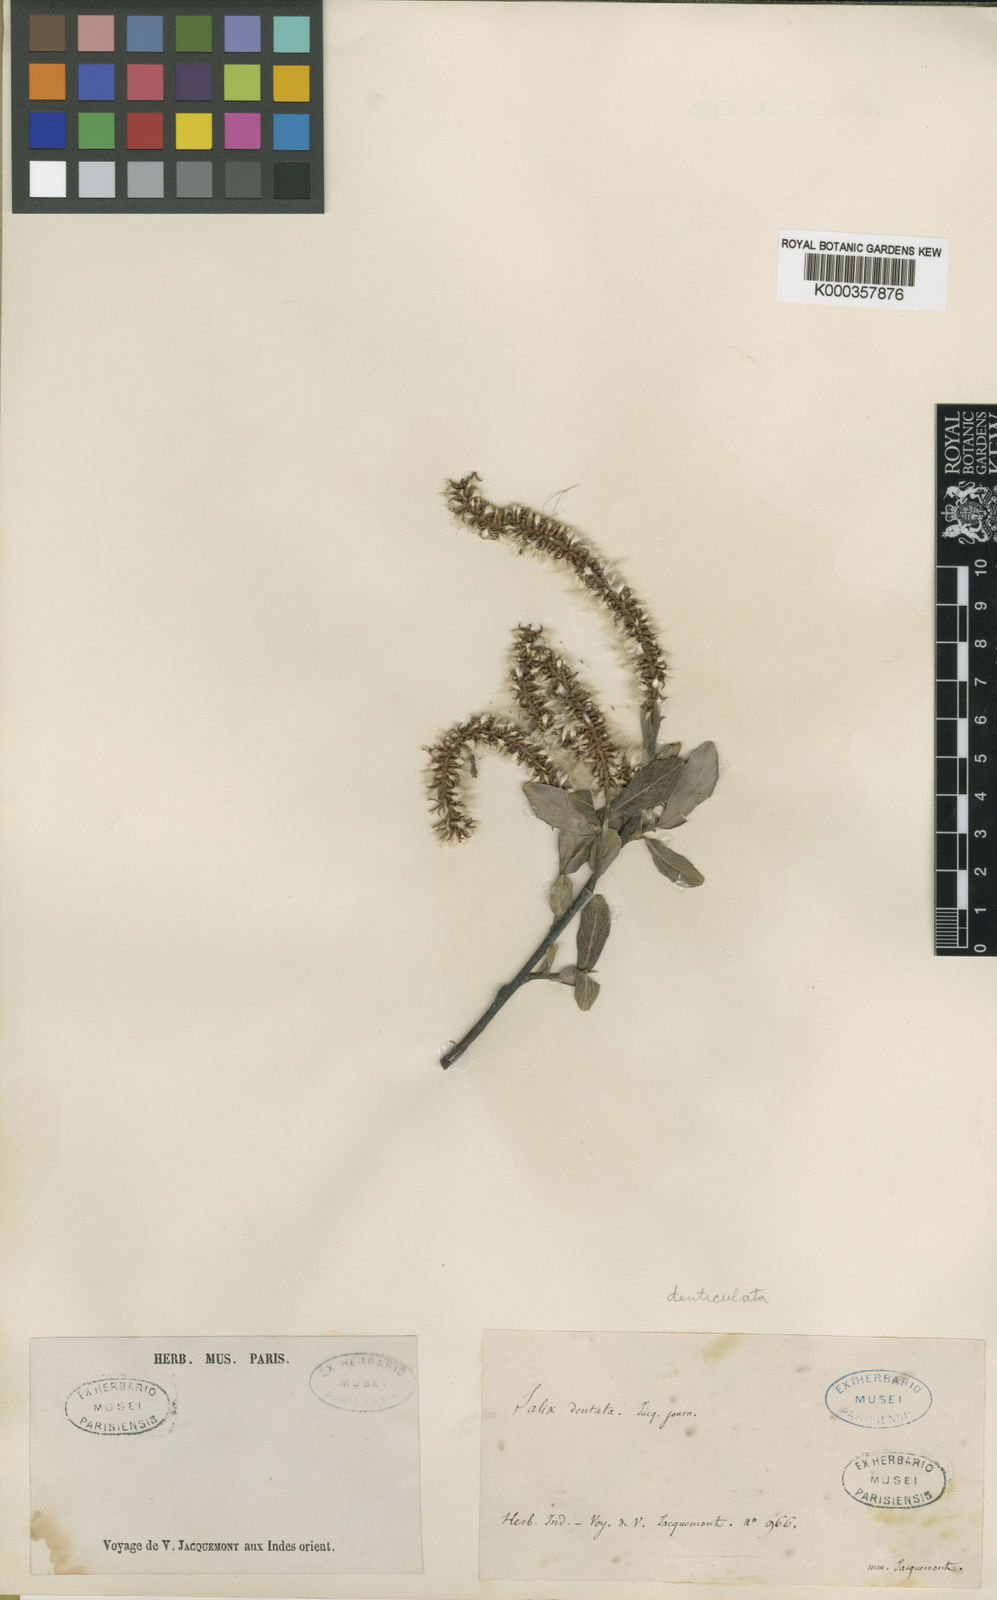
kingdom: Plantae
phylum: Tracheophyta
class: Magnoliopsida
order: Malpighiales
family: Salicaceae
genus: Salix
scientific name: Salix denticulata
